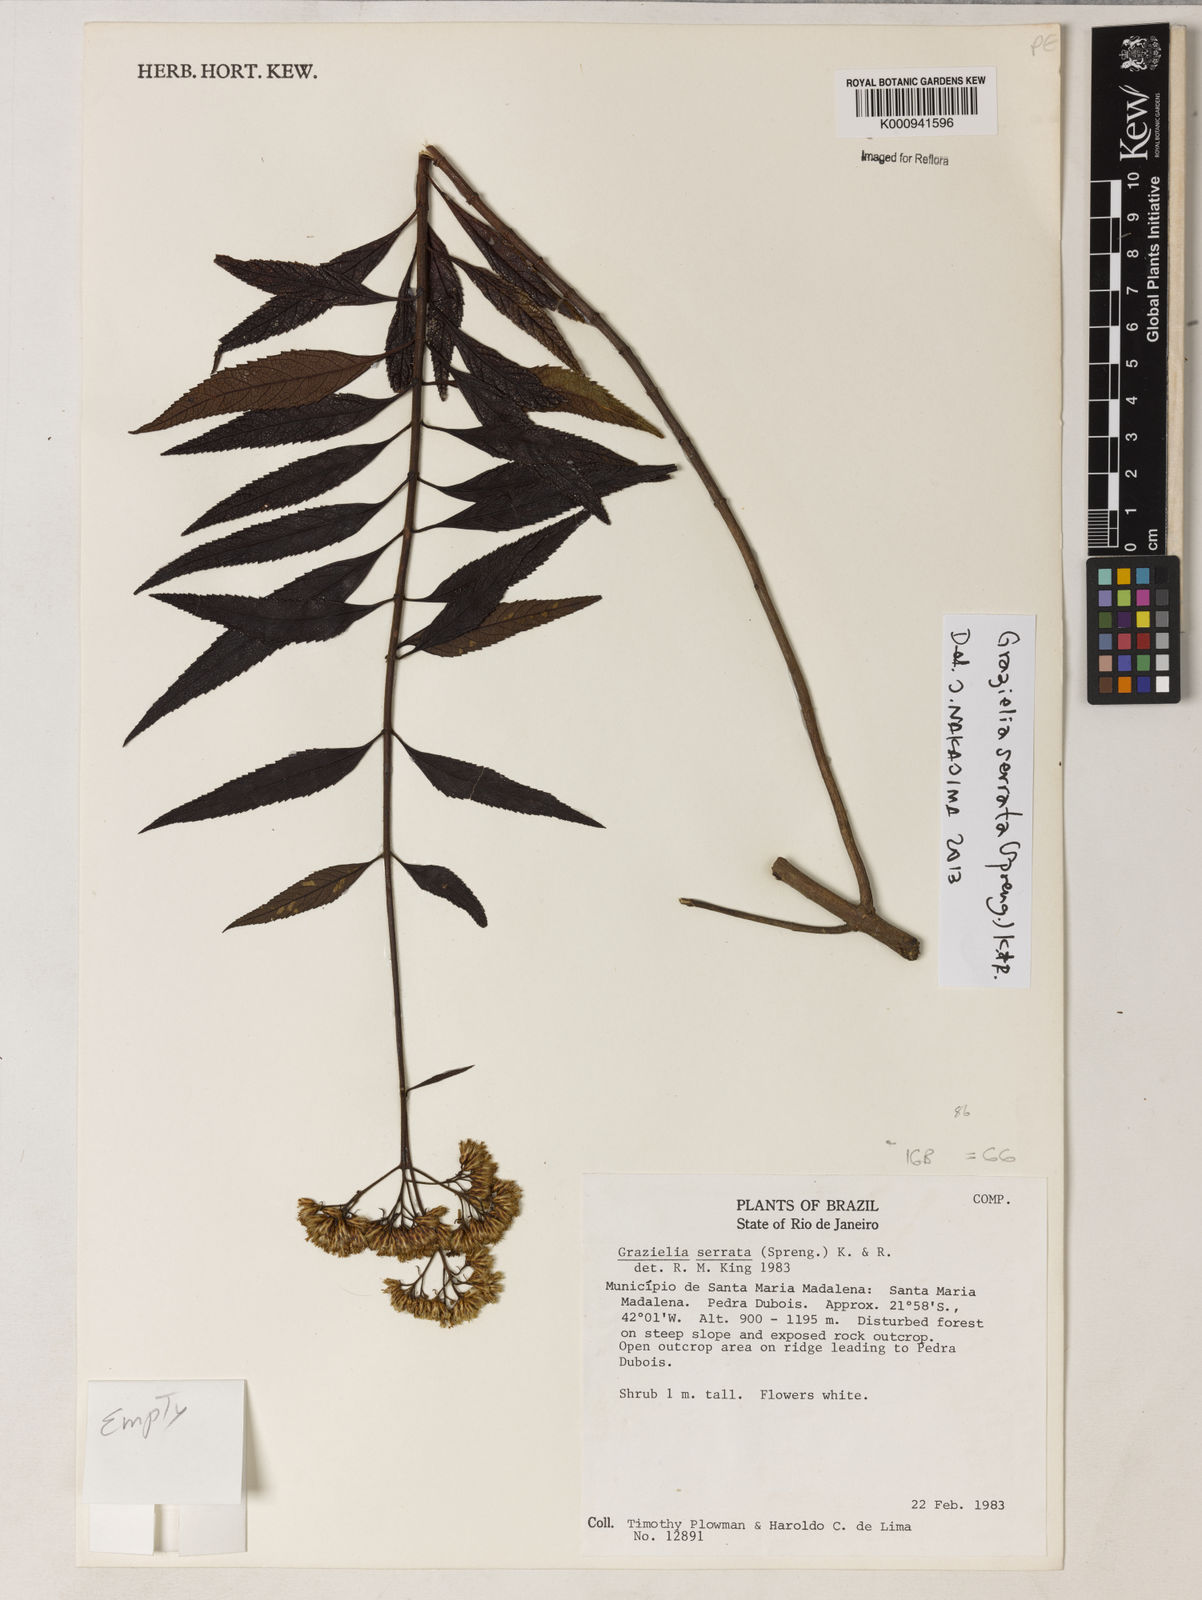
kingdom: Plantae
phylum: Tracheophyta
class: Magnoliopsida
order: Asterales
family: Asteraceae
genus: Grazielia
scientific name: Grazielia serrata
